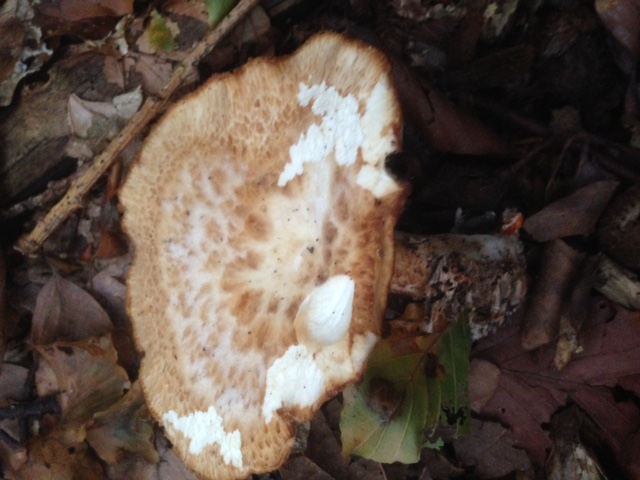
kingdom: Fungi
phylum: Basidiomycota
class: Agaricomycetes
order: Polyporales
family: Polyporaceae
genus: Polyporus
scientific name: Polyporus tuberaster
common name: knoldet stilkporesvamp
